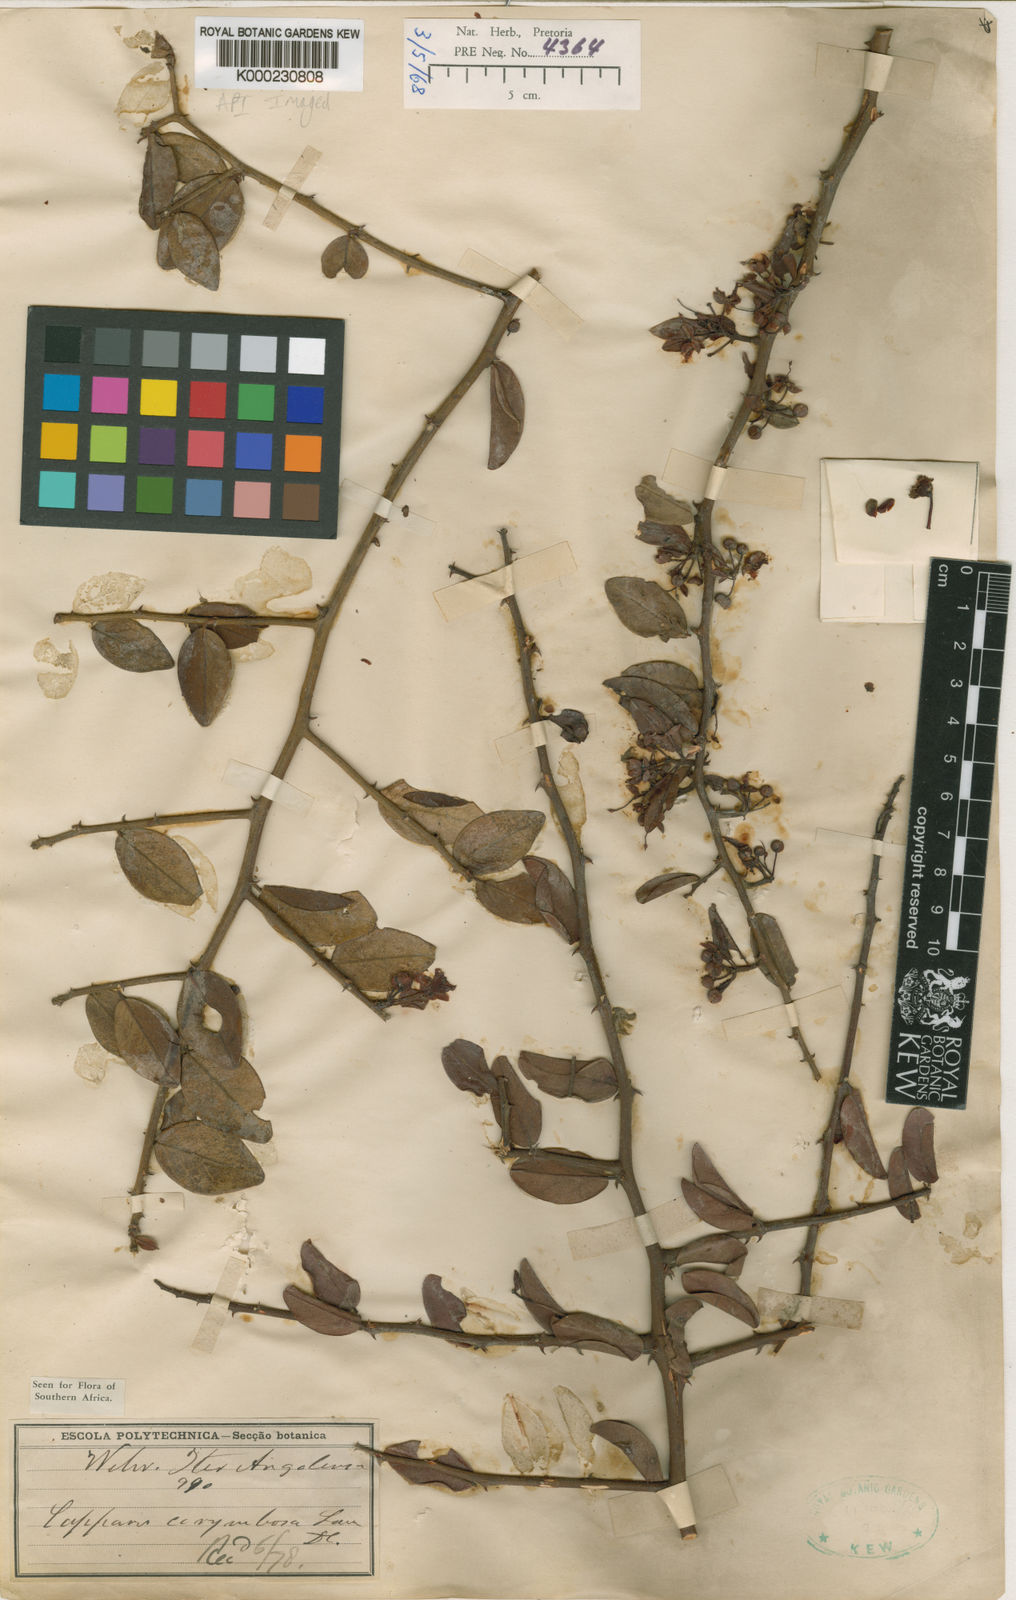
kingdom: Plantae
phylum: Tracheophyta
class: Magnoliopsida
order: Brassicales
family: Capparaceae
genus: Capparis
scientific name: Capparis corymbosa
